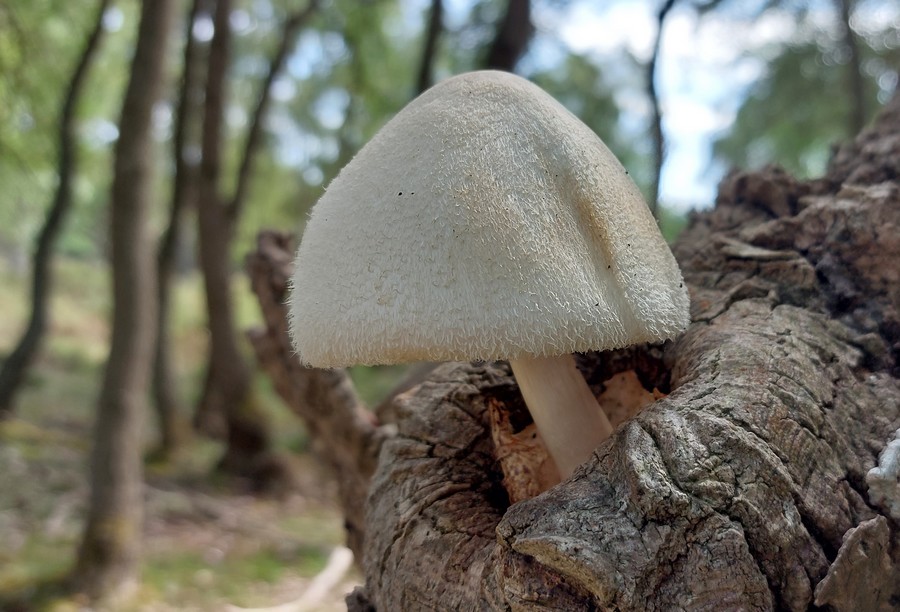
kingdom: Fungi
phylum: Basidiomycota
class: Agaricomycetes
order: Agaricales
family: Pluteaceae
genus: Volvariella
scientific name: Volvariella bombycina
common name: silkehåret posesvamp
